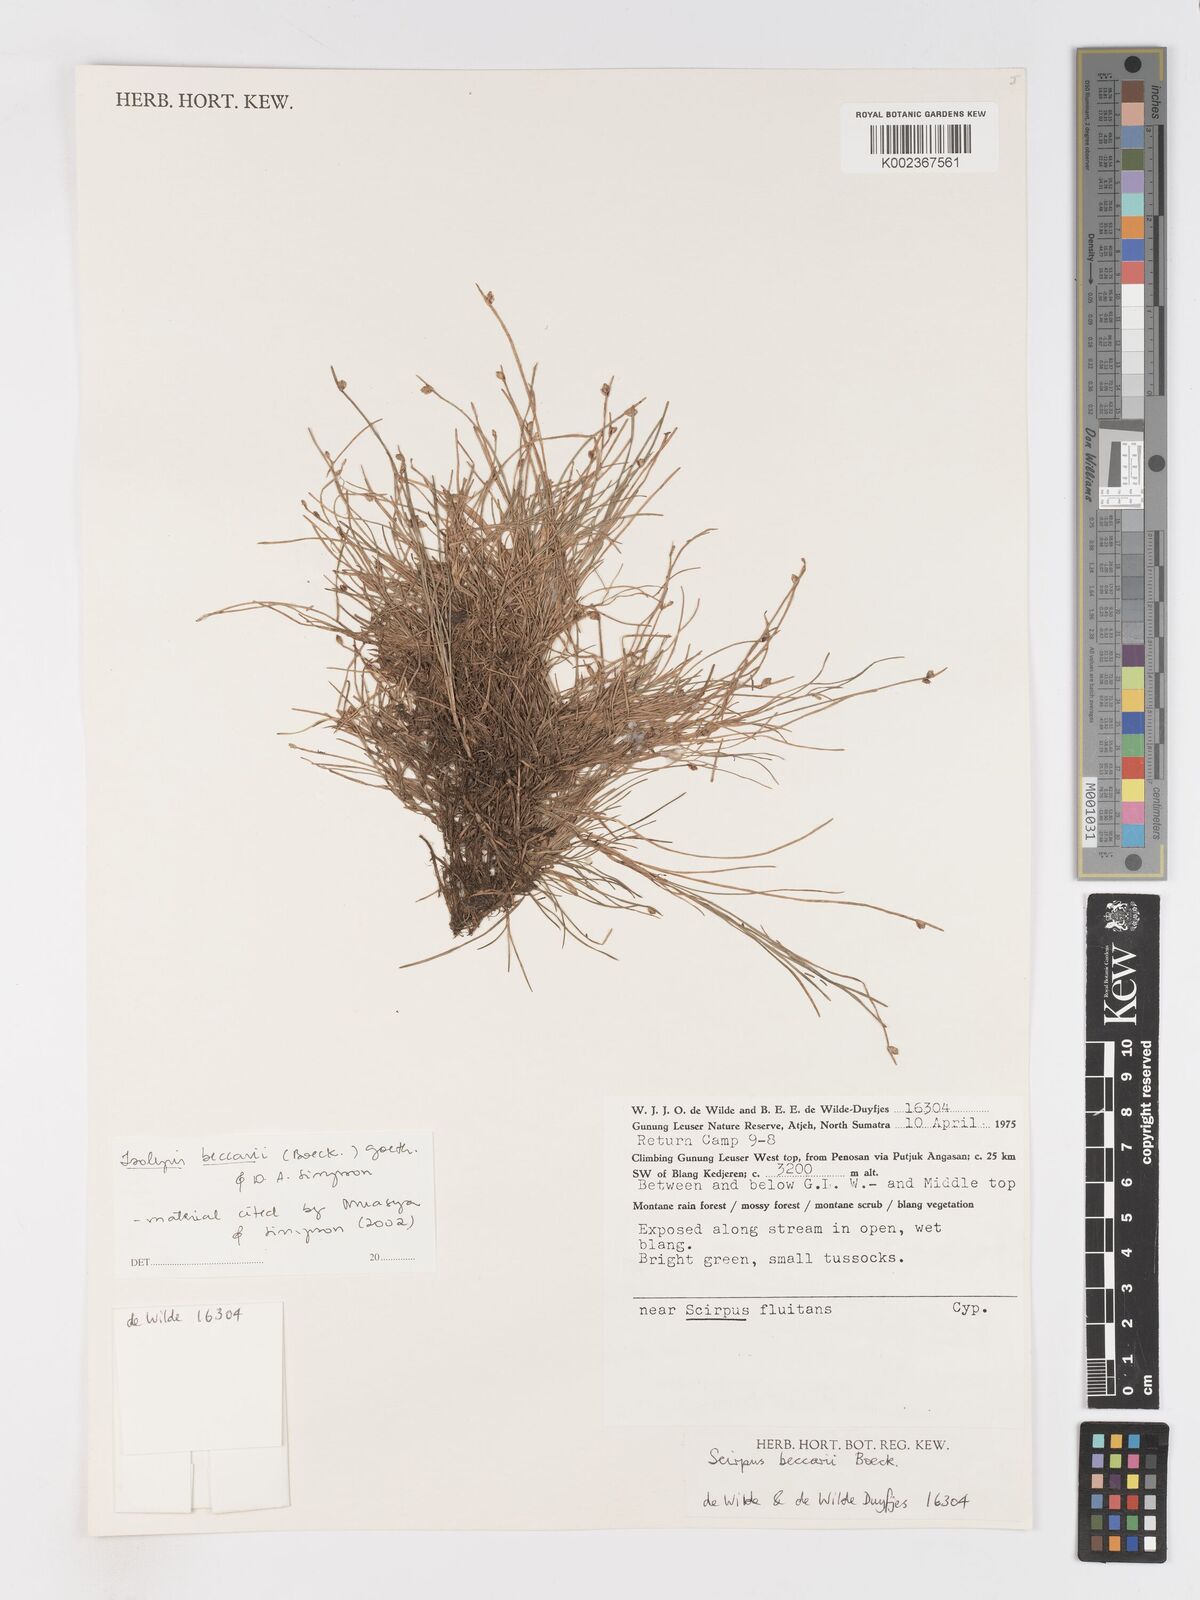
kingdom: Plantae
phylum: Tracheophyta
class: Liliopsida
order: Poales
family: Cyperaceae
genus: Isolepis
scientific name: Isolepis beccarii
